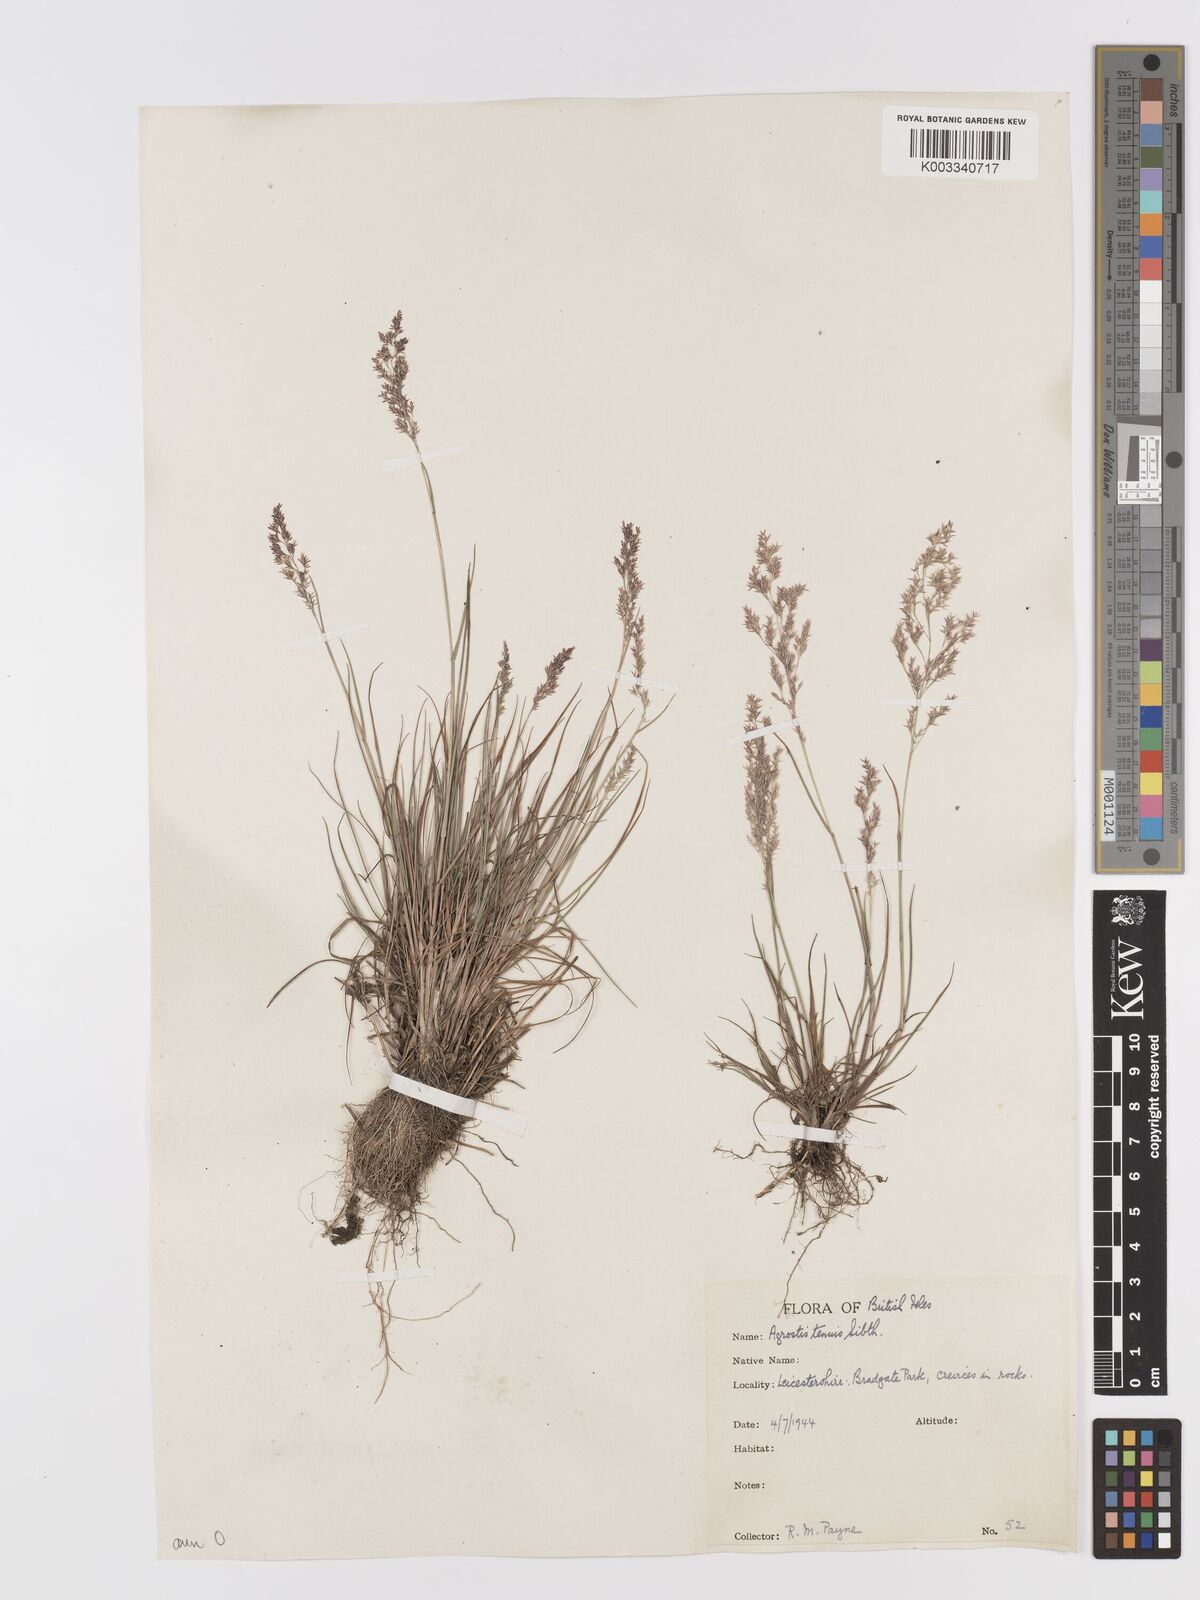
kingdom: Plantae
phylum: Tracheophyta
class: Liliopsida
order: Poales
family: Poaceae
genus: Agrostis
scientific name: Agrostis capillaris
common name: Colonial bentgrass
